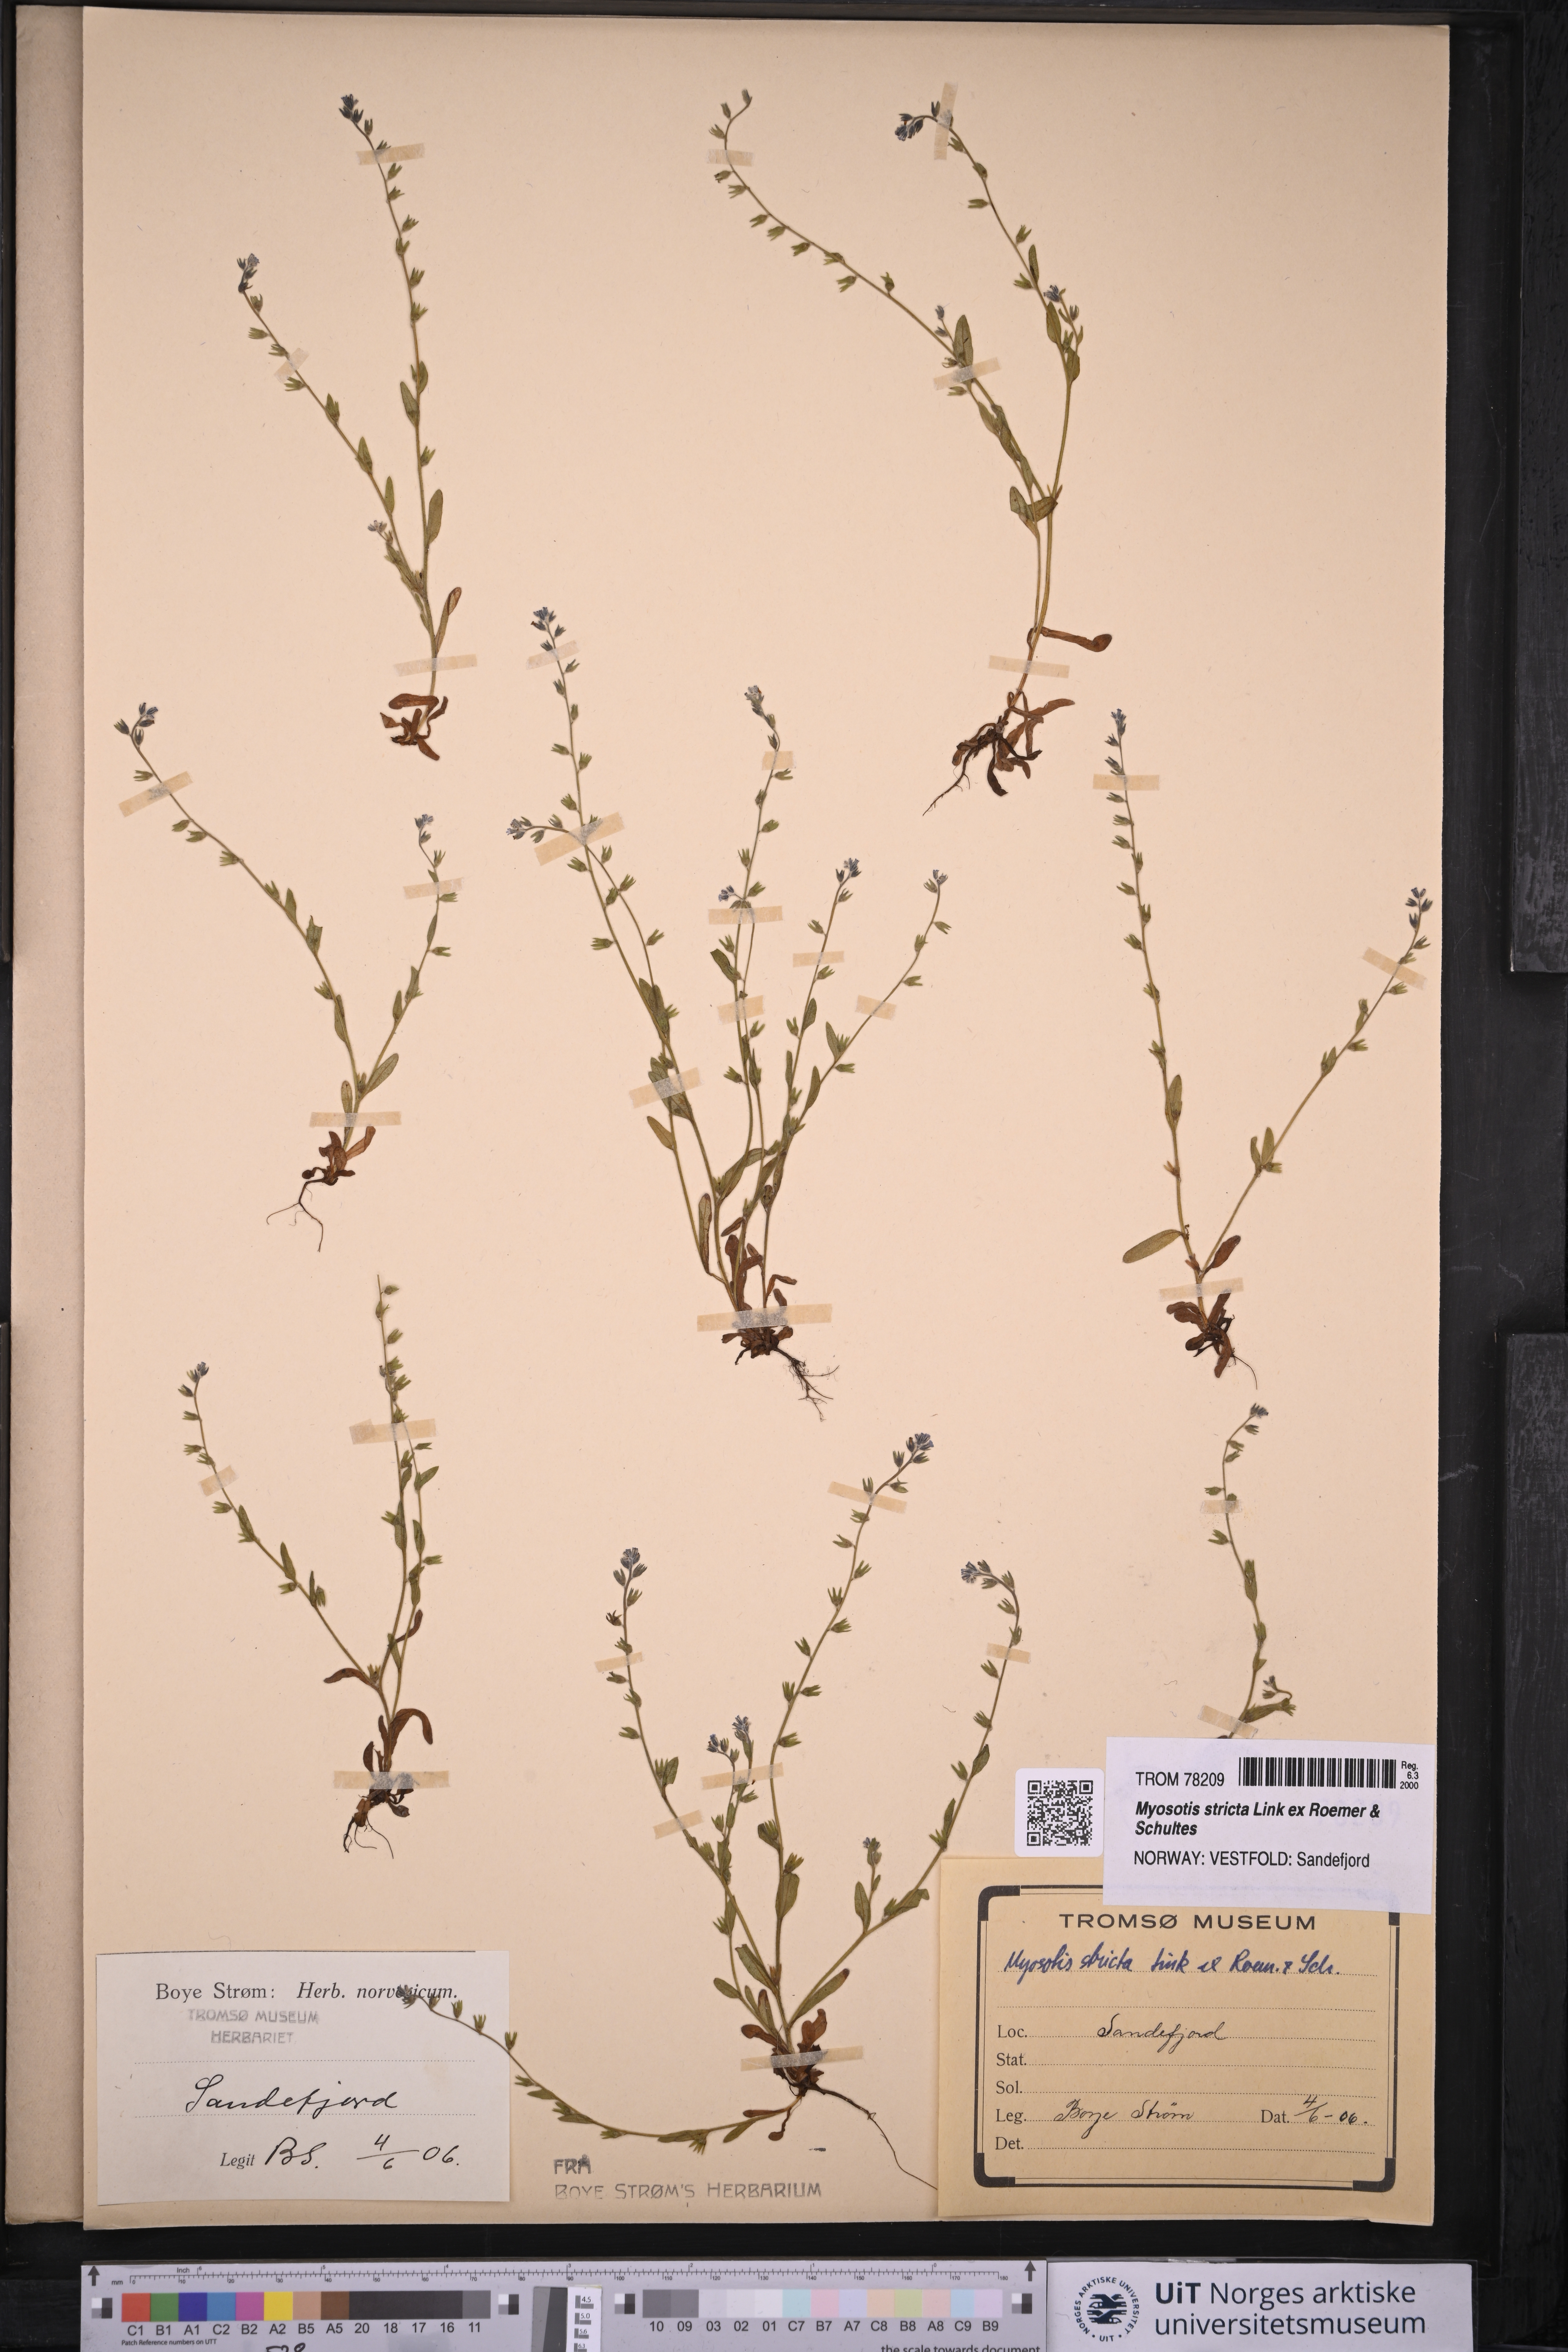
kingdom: Plantae
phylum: Tracheophyta
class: Magnoliopsida
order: Boraginales
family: Boraginaceae
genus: Myosotis
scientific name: Myosotis stricta
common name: Strict forget-me-not
